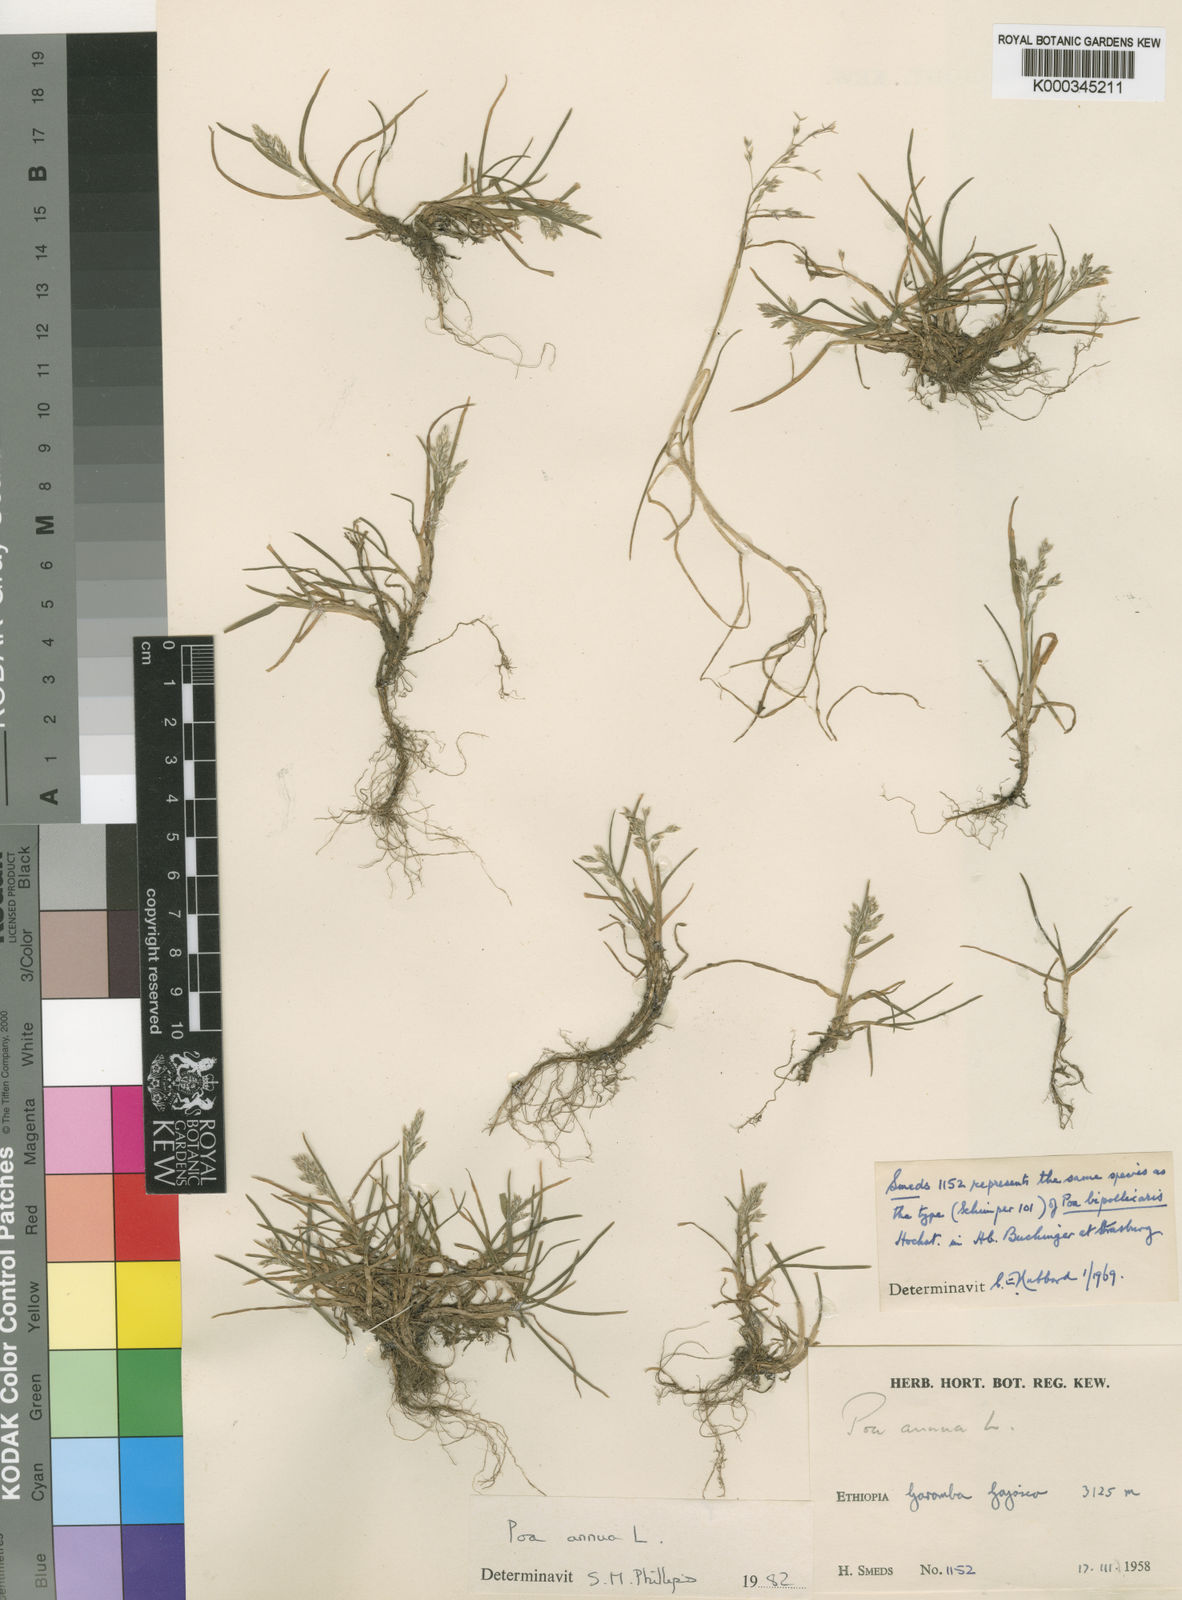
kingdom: Plantae
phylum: Tracheophyta
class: Liliopsida
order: Poales
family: Poaceae
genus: Poa
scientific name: Poa annua
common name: Annual bluegrass
